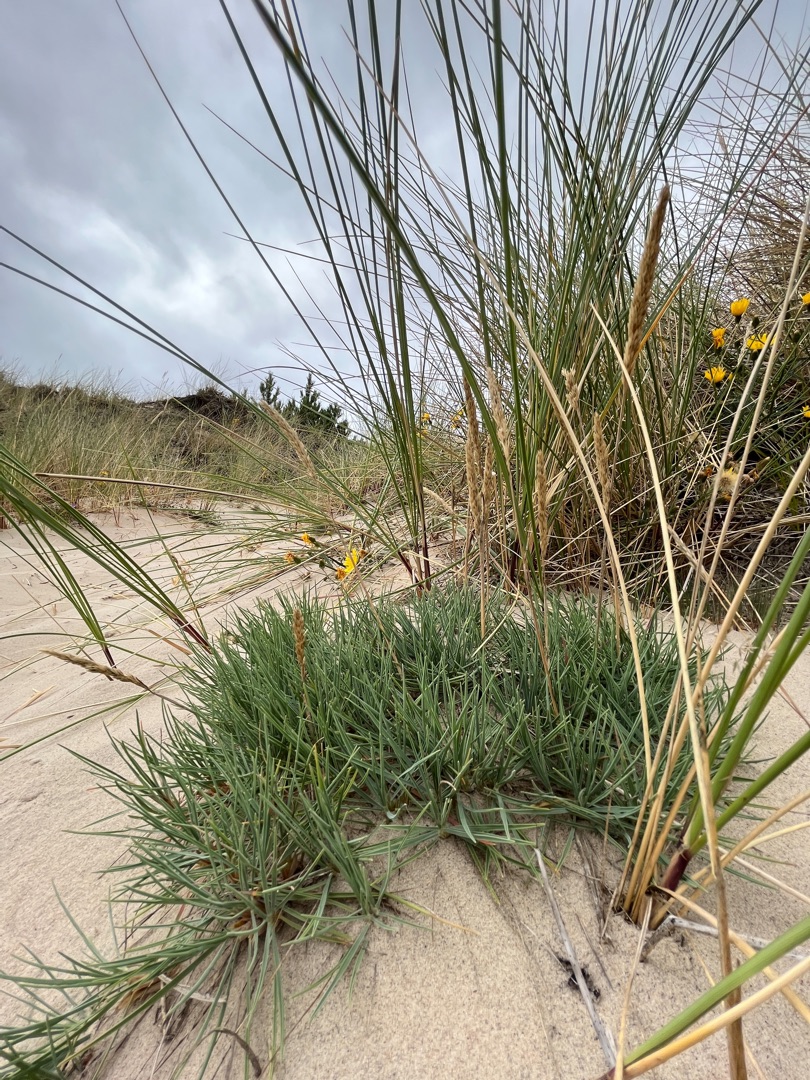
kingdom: Plantae
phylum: Tracheophyta
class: Liliopsida
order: Poales
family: Poaceae
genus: Koeleria
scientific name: Koeleria glauca
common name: Klit-kambunke
